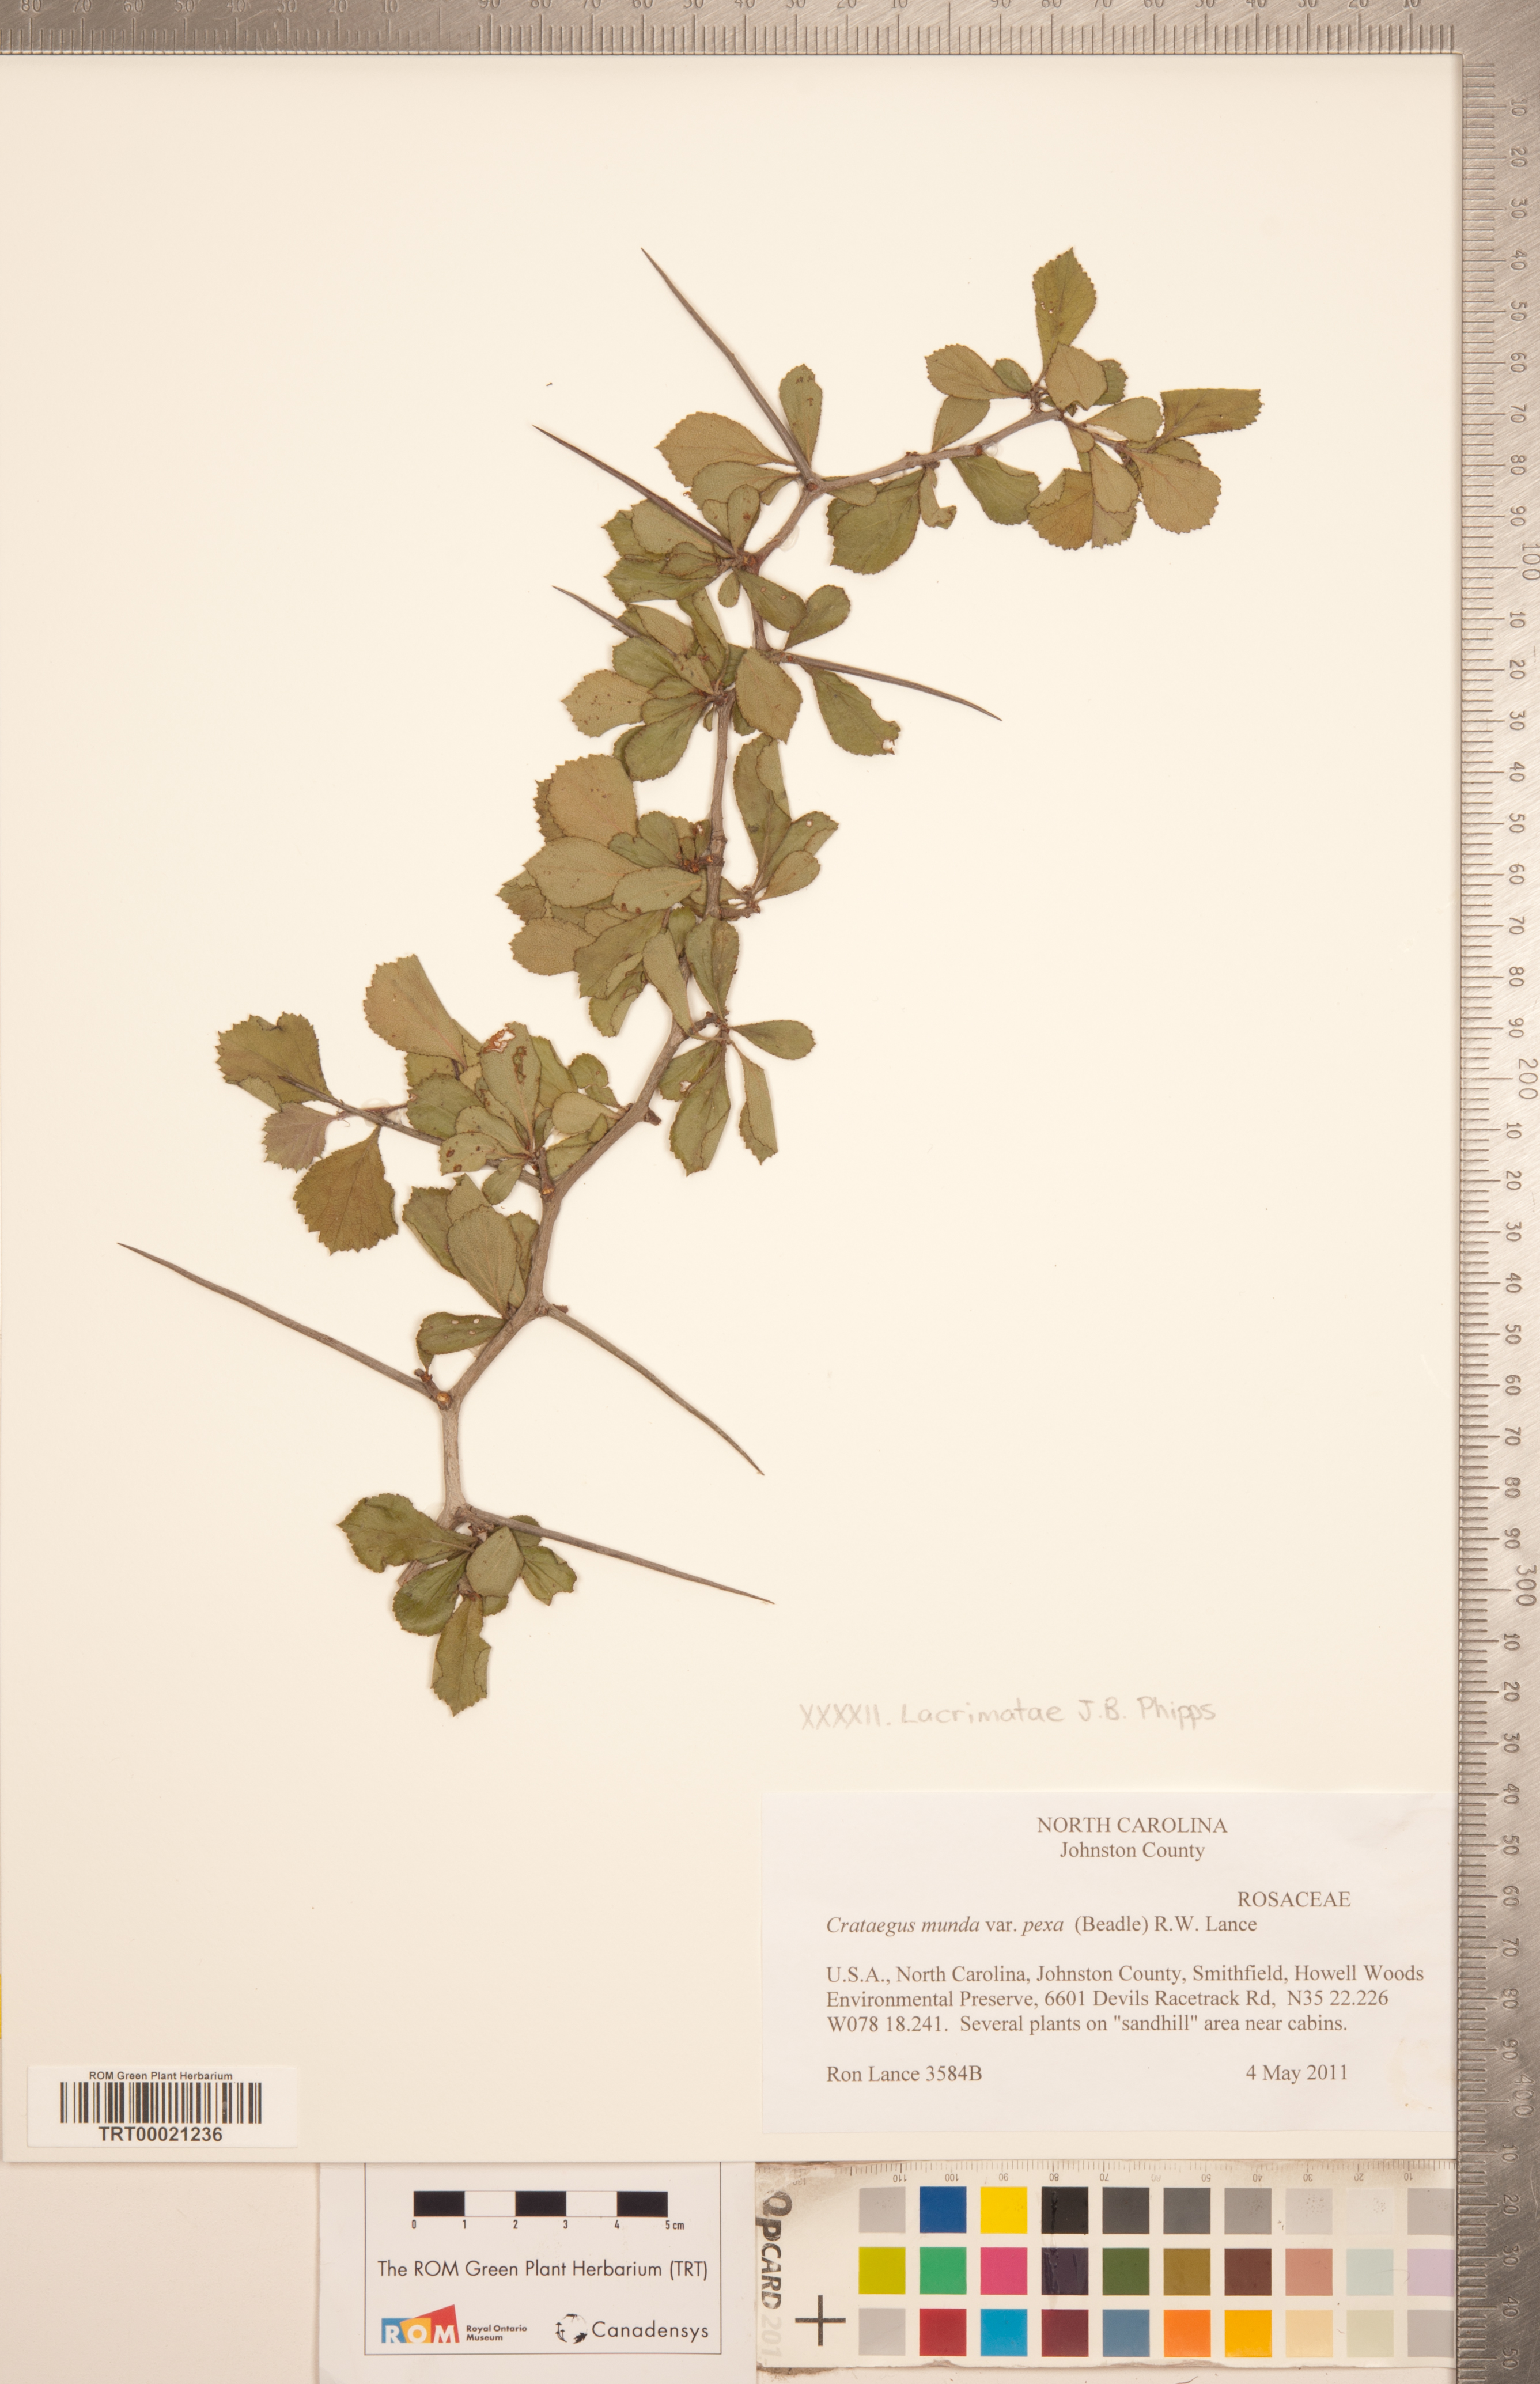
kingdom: Plantae
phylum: Tracheophyta
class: Magnoliopsida
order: Rosales
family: Rosaceae
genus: Crataegus
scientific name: Crataegus munda
